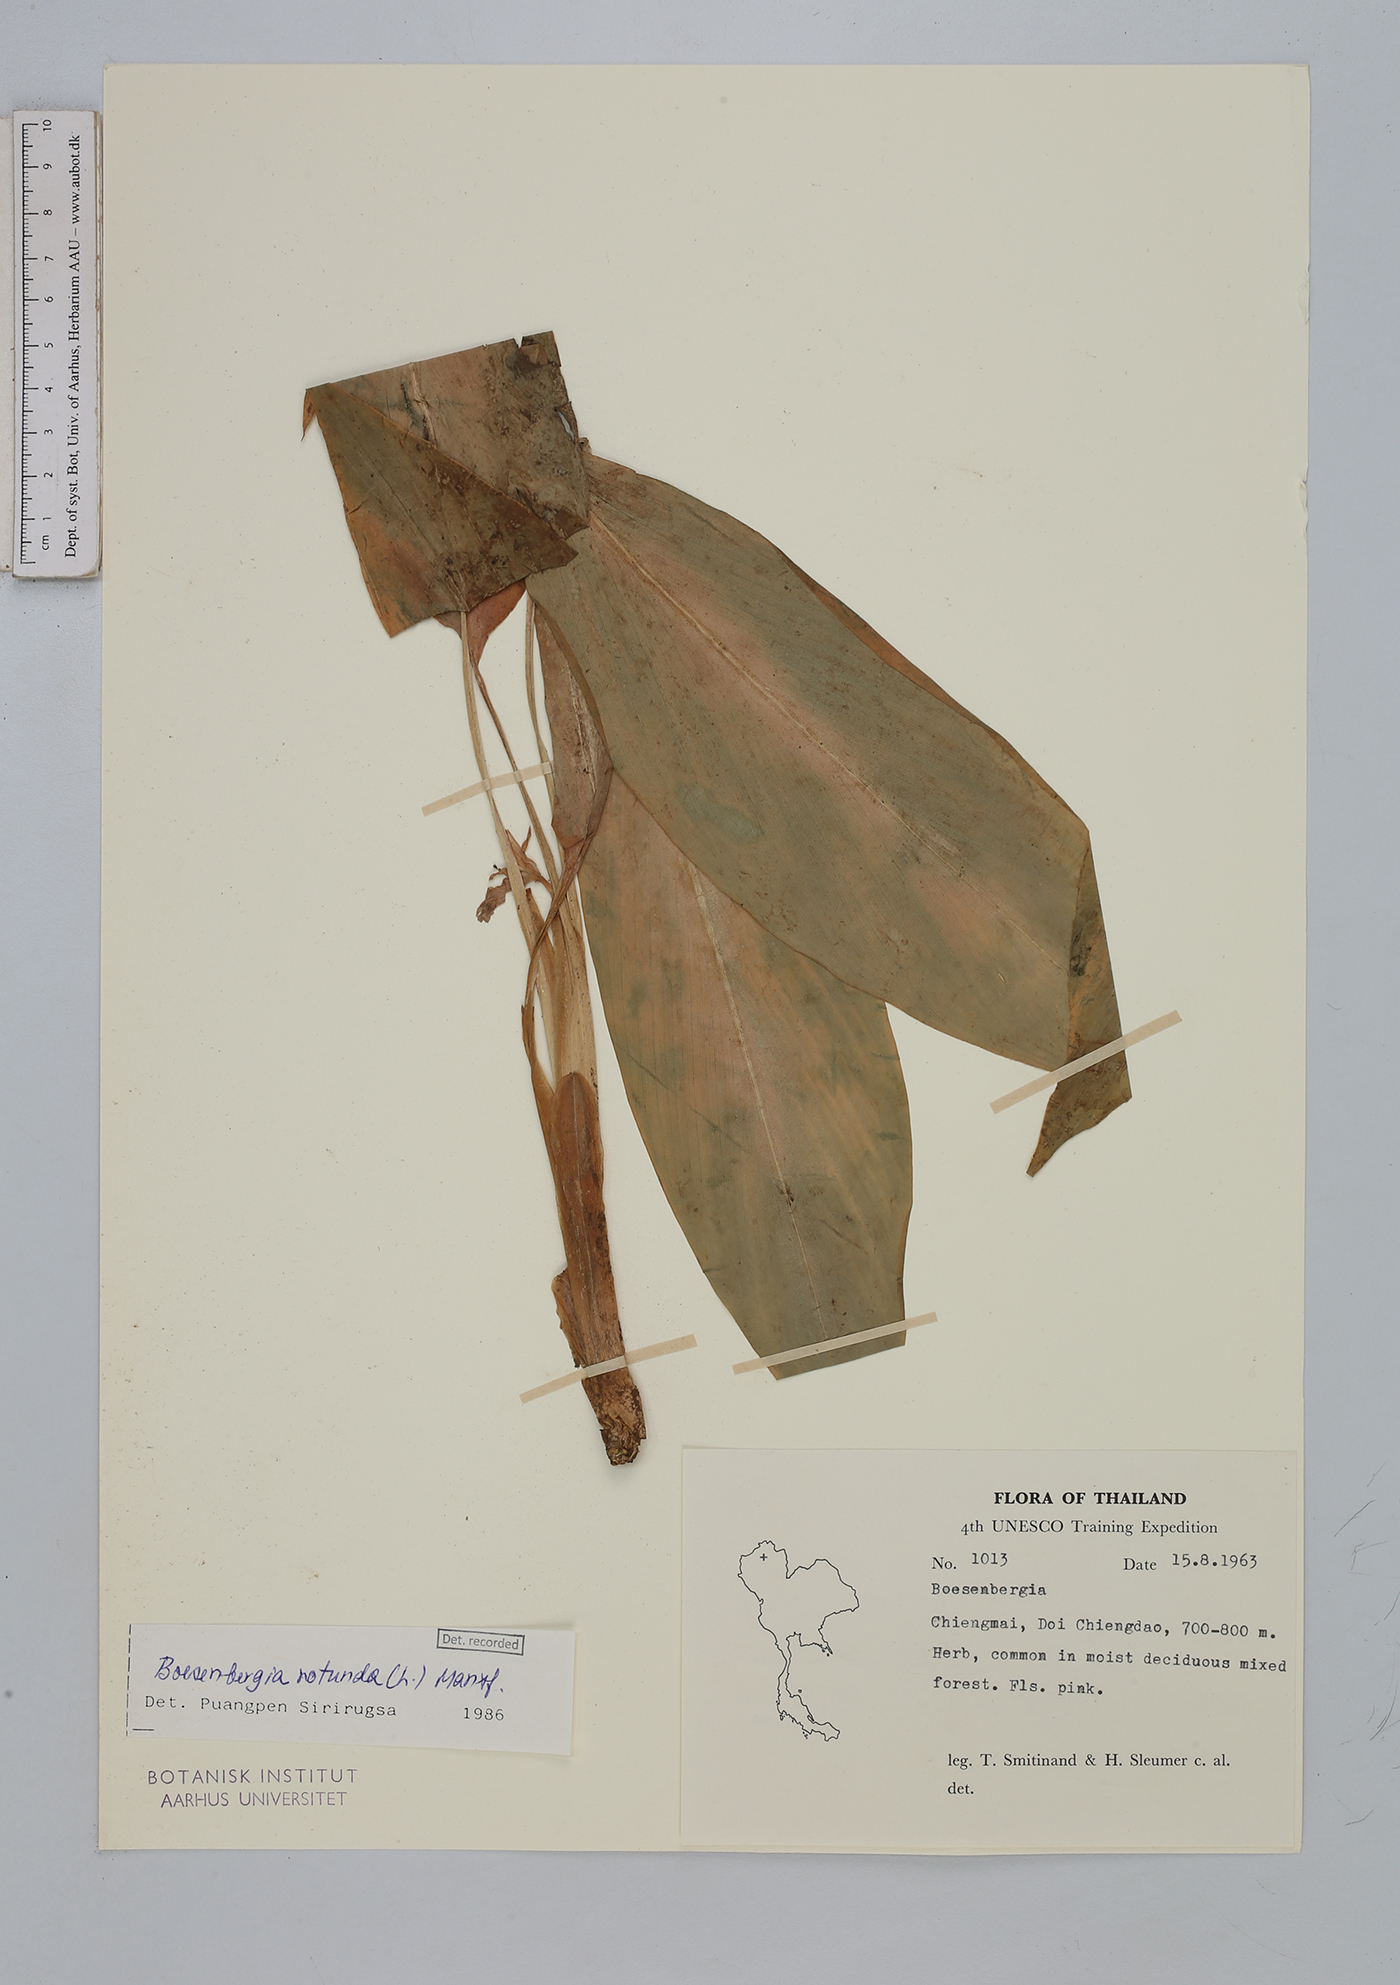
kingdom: Plantae
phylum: Tracheophyta
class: Liliopsida
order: Zingiberales
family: Zingiberaceae
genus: Boesenbergia
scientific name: Boesenbergia rotunda
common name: Chinese ginger
